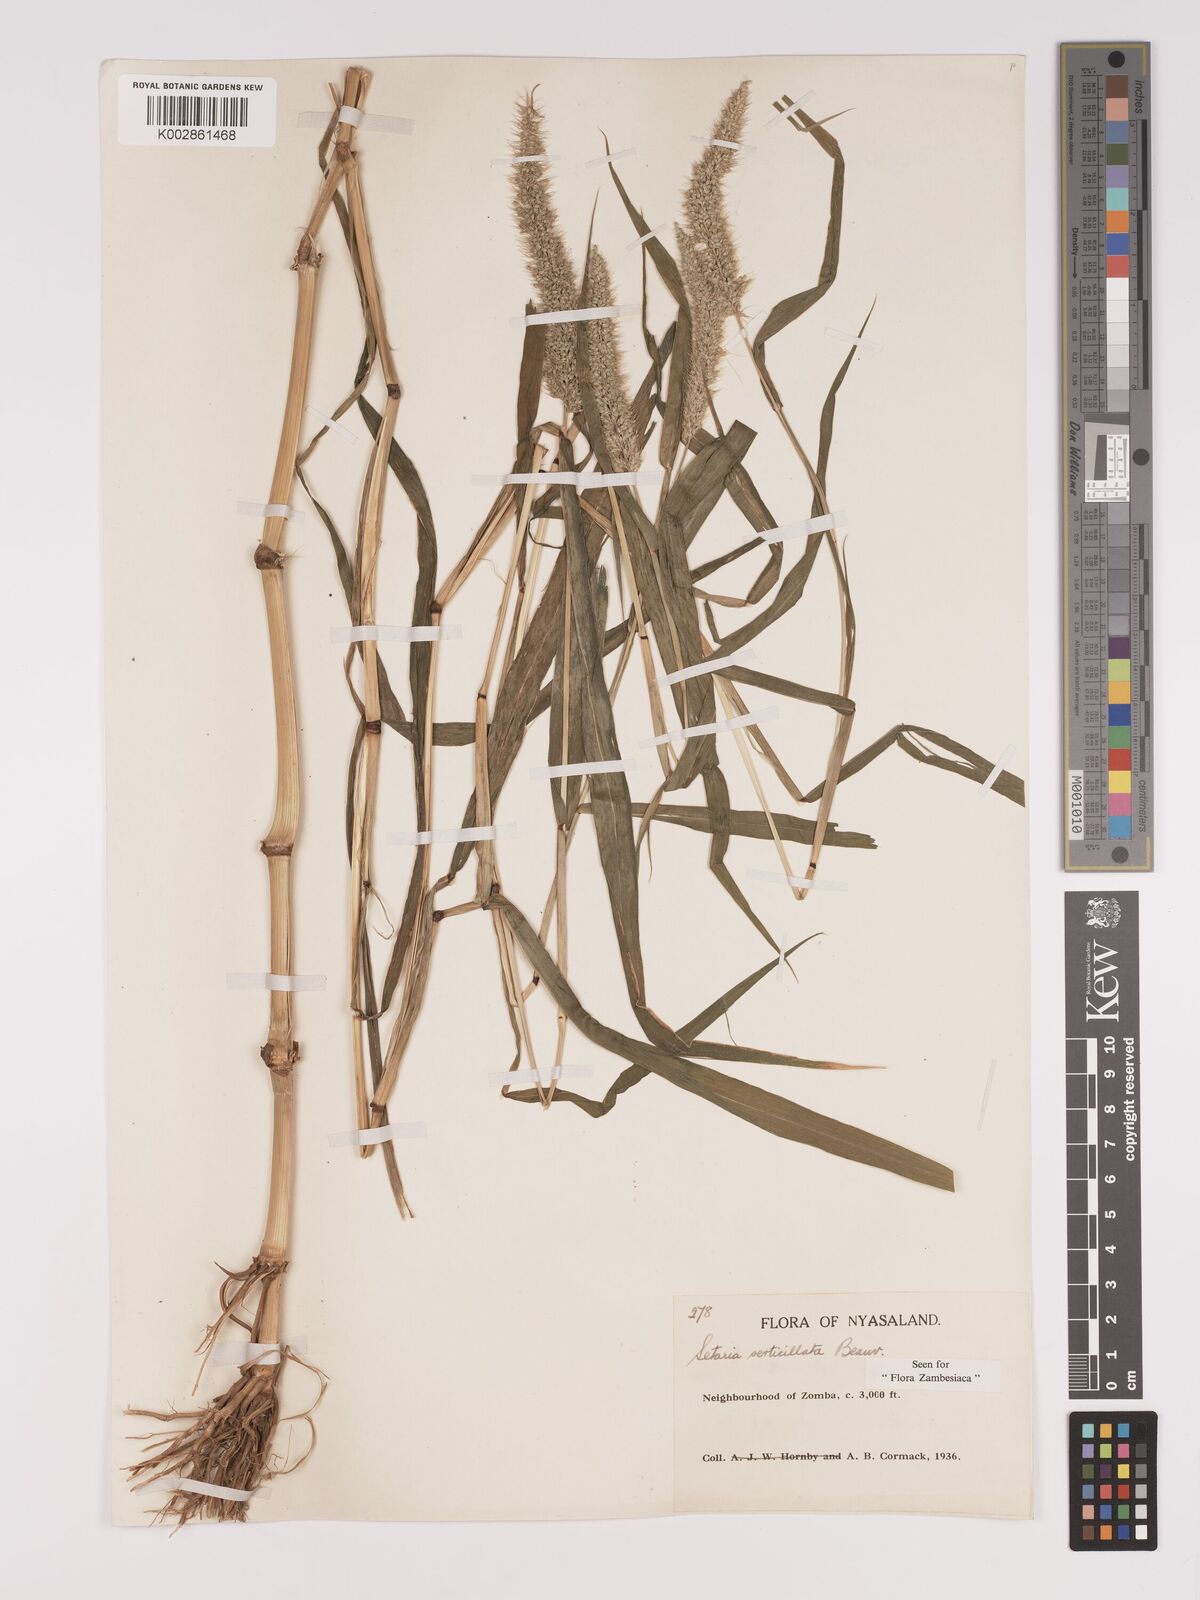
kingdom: Plantae
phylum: Tracheophyta
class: Liliopsida
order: Poales
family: Poaceae
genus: Setaria
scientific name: Setaria verticillata
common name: Hooked bristlegrass
